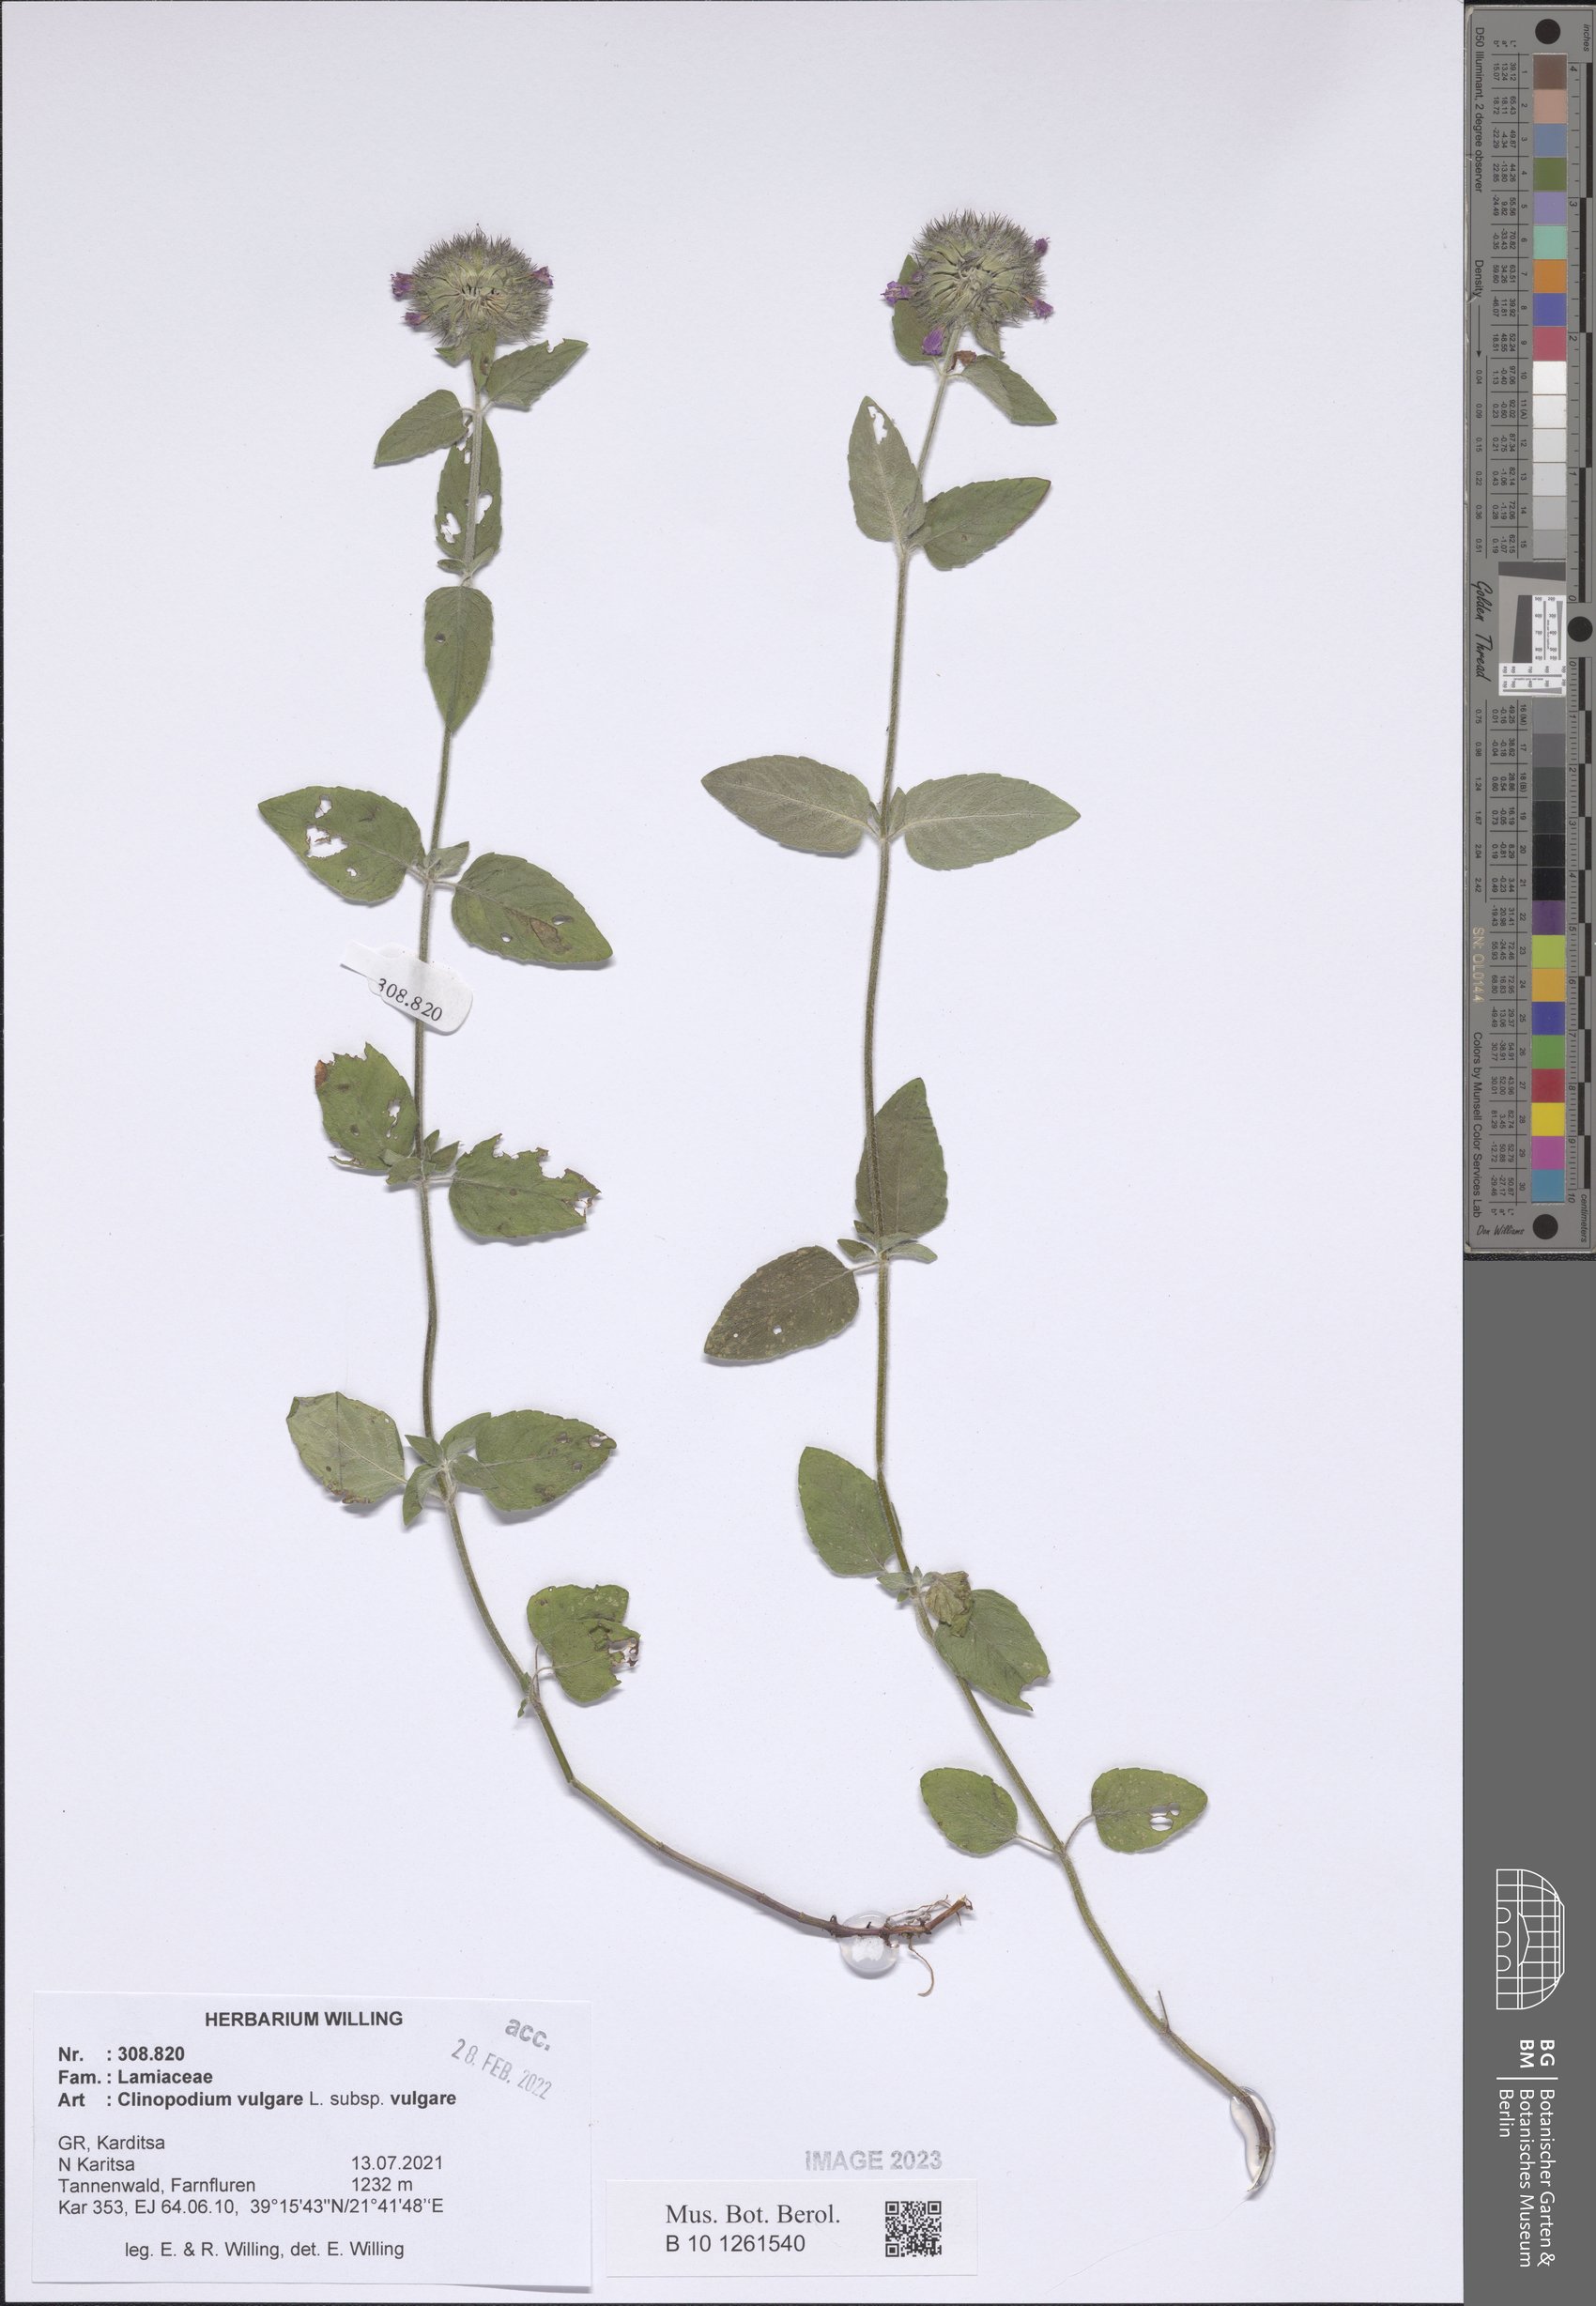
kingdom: Plantae
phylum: Tracheophyta
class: Magnoliopsida
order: Lamiales
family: Lamiaceae
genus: Clinopodium
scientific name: Clinopodium vulgare
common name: Wild basil
